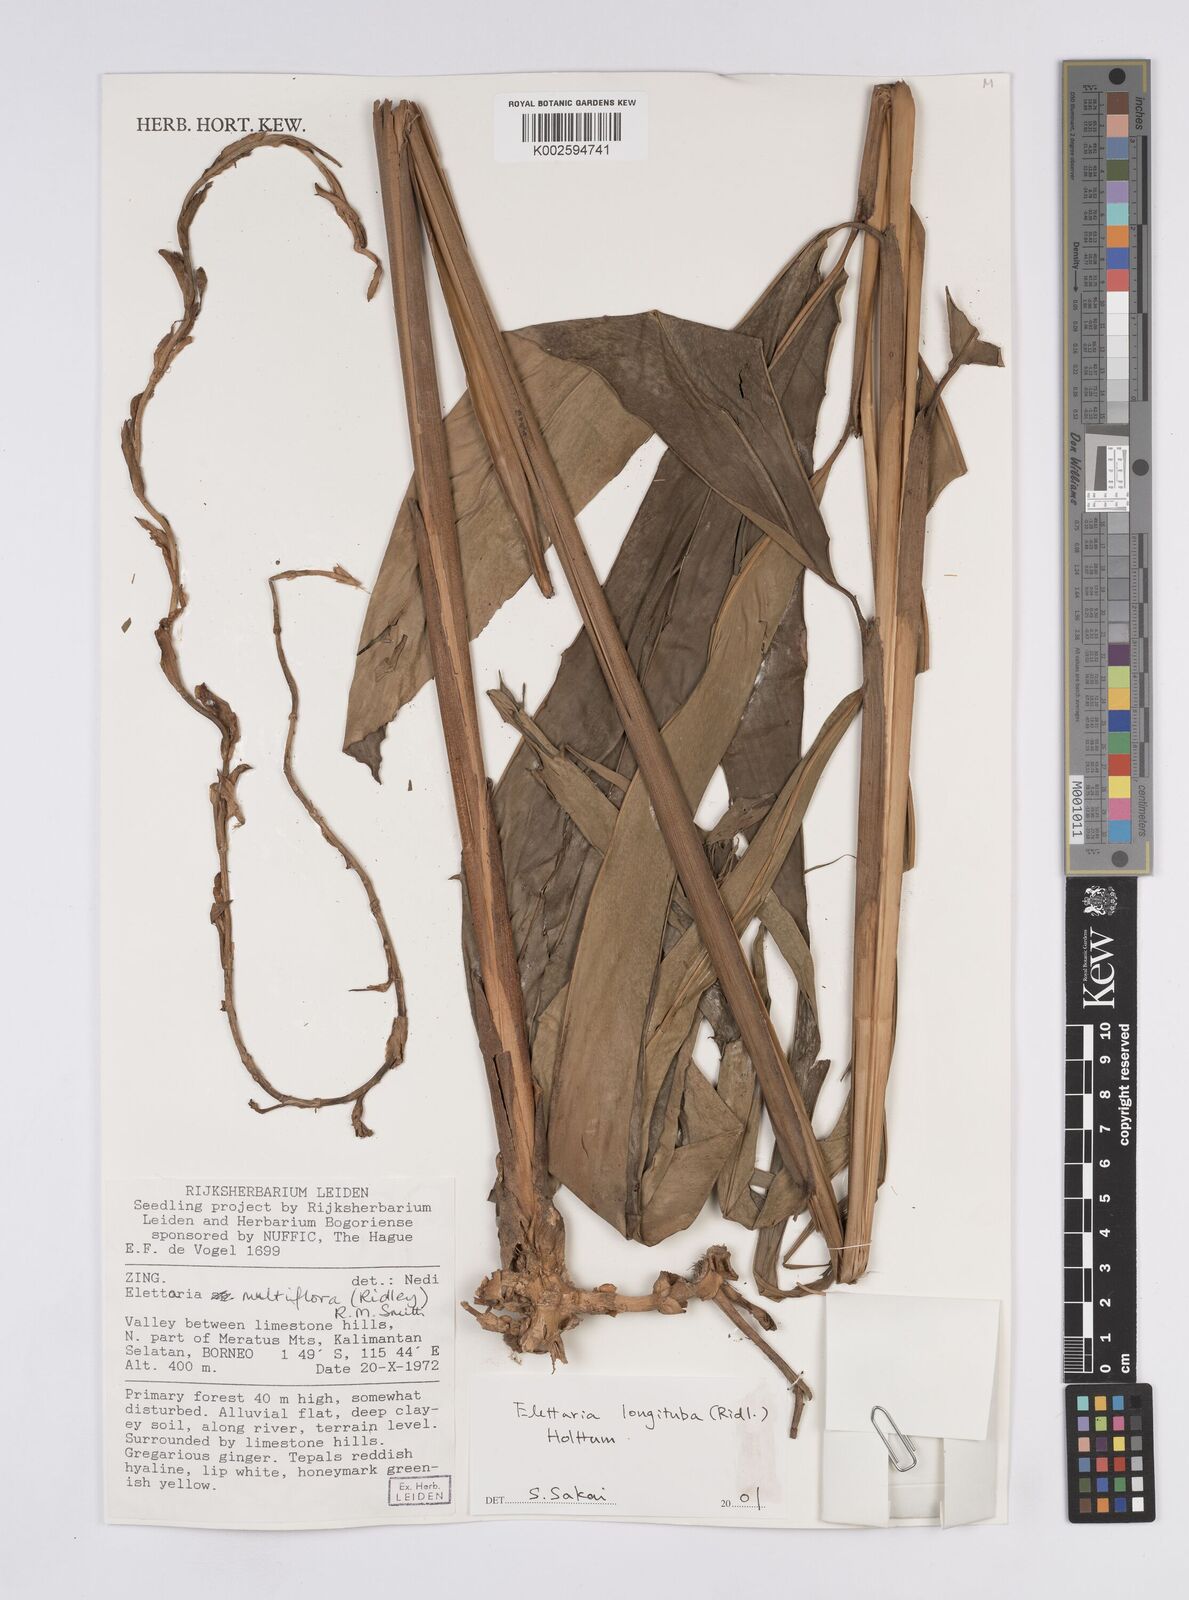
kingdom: Plantae
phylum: Tracheophyta
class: Liliopsida
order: Zingiberales
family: Zingiberaceae
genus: Sulettaria
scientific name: Sulettaria longituba
